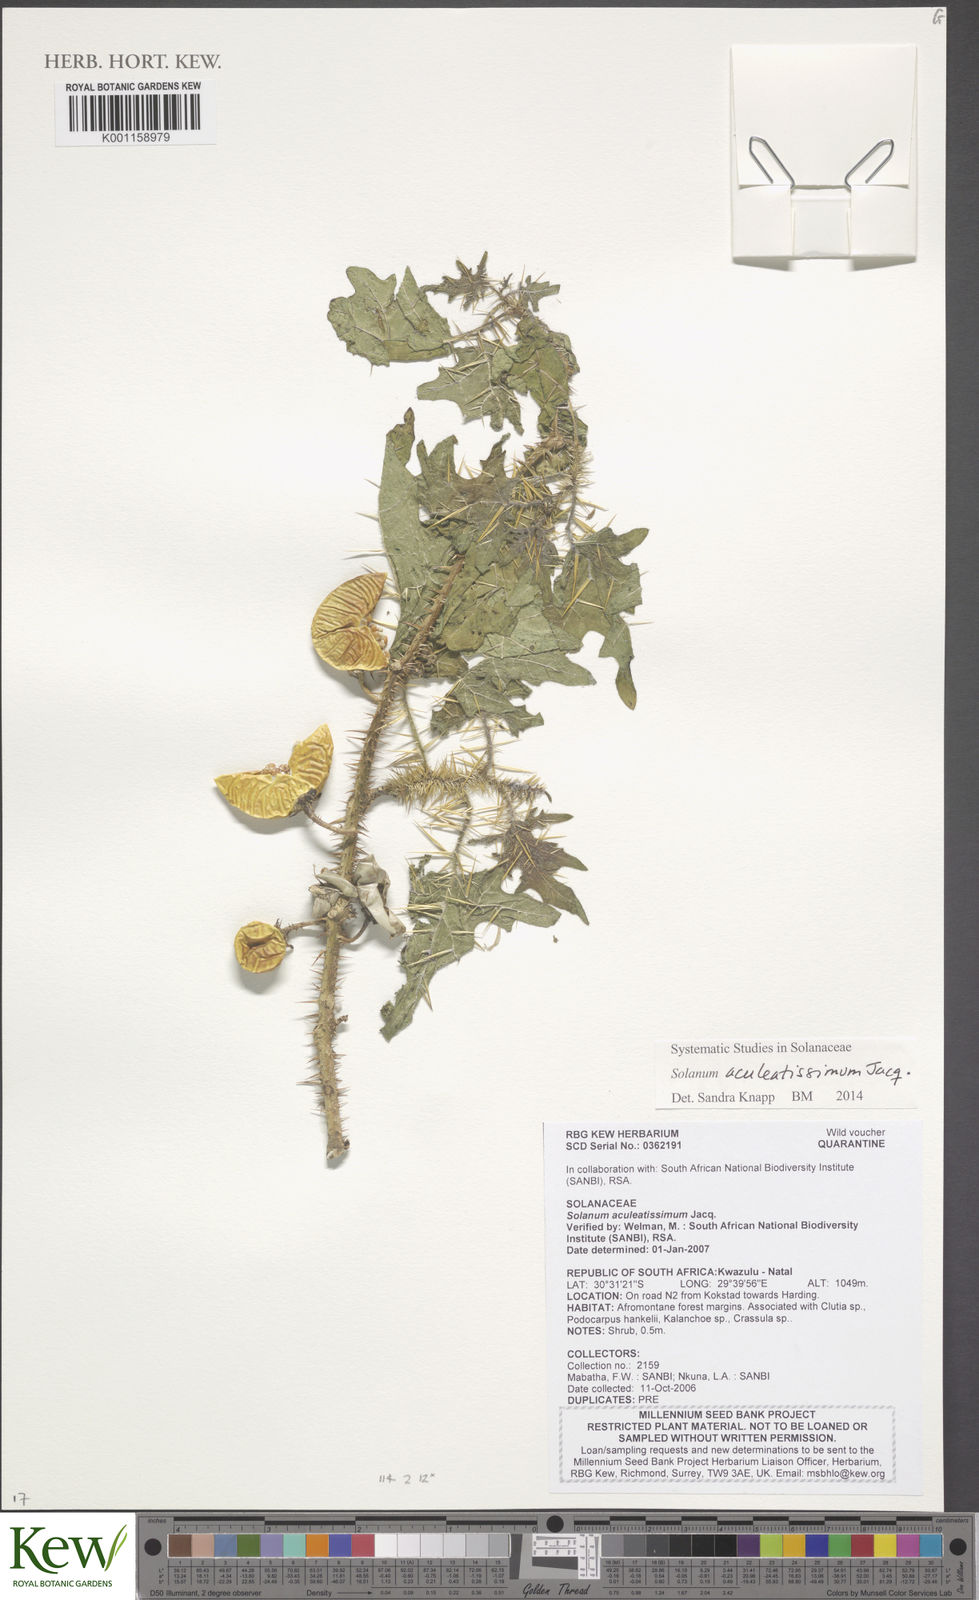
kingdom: Plantae
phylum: Tracheophyta
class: Magnoliopsida
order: Solanales
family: Solanaceae
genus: Solanum
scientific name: Solanum aculeatissimum
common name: Dutch eggplant
